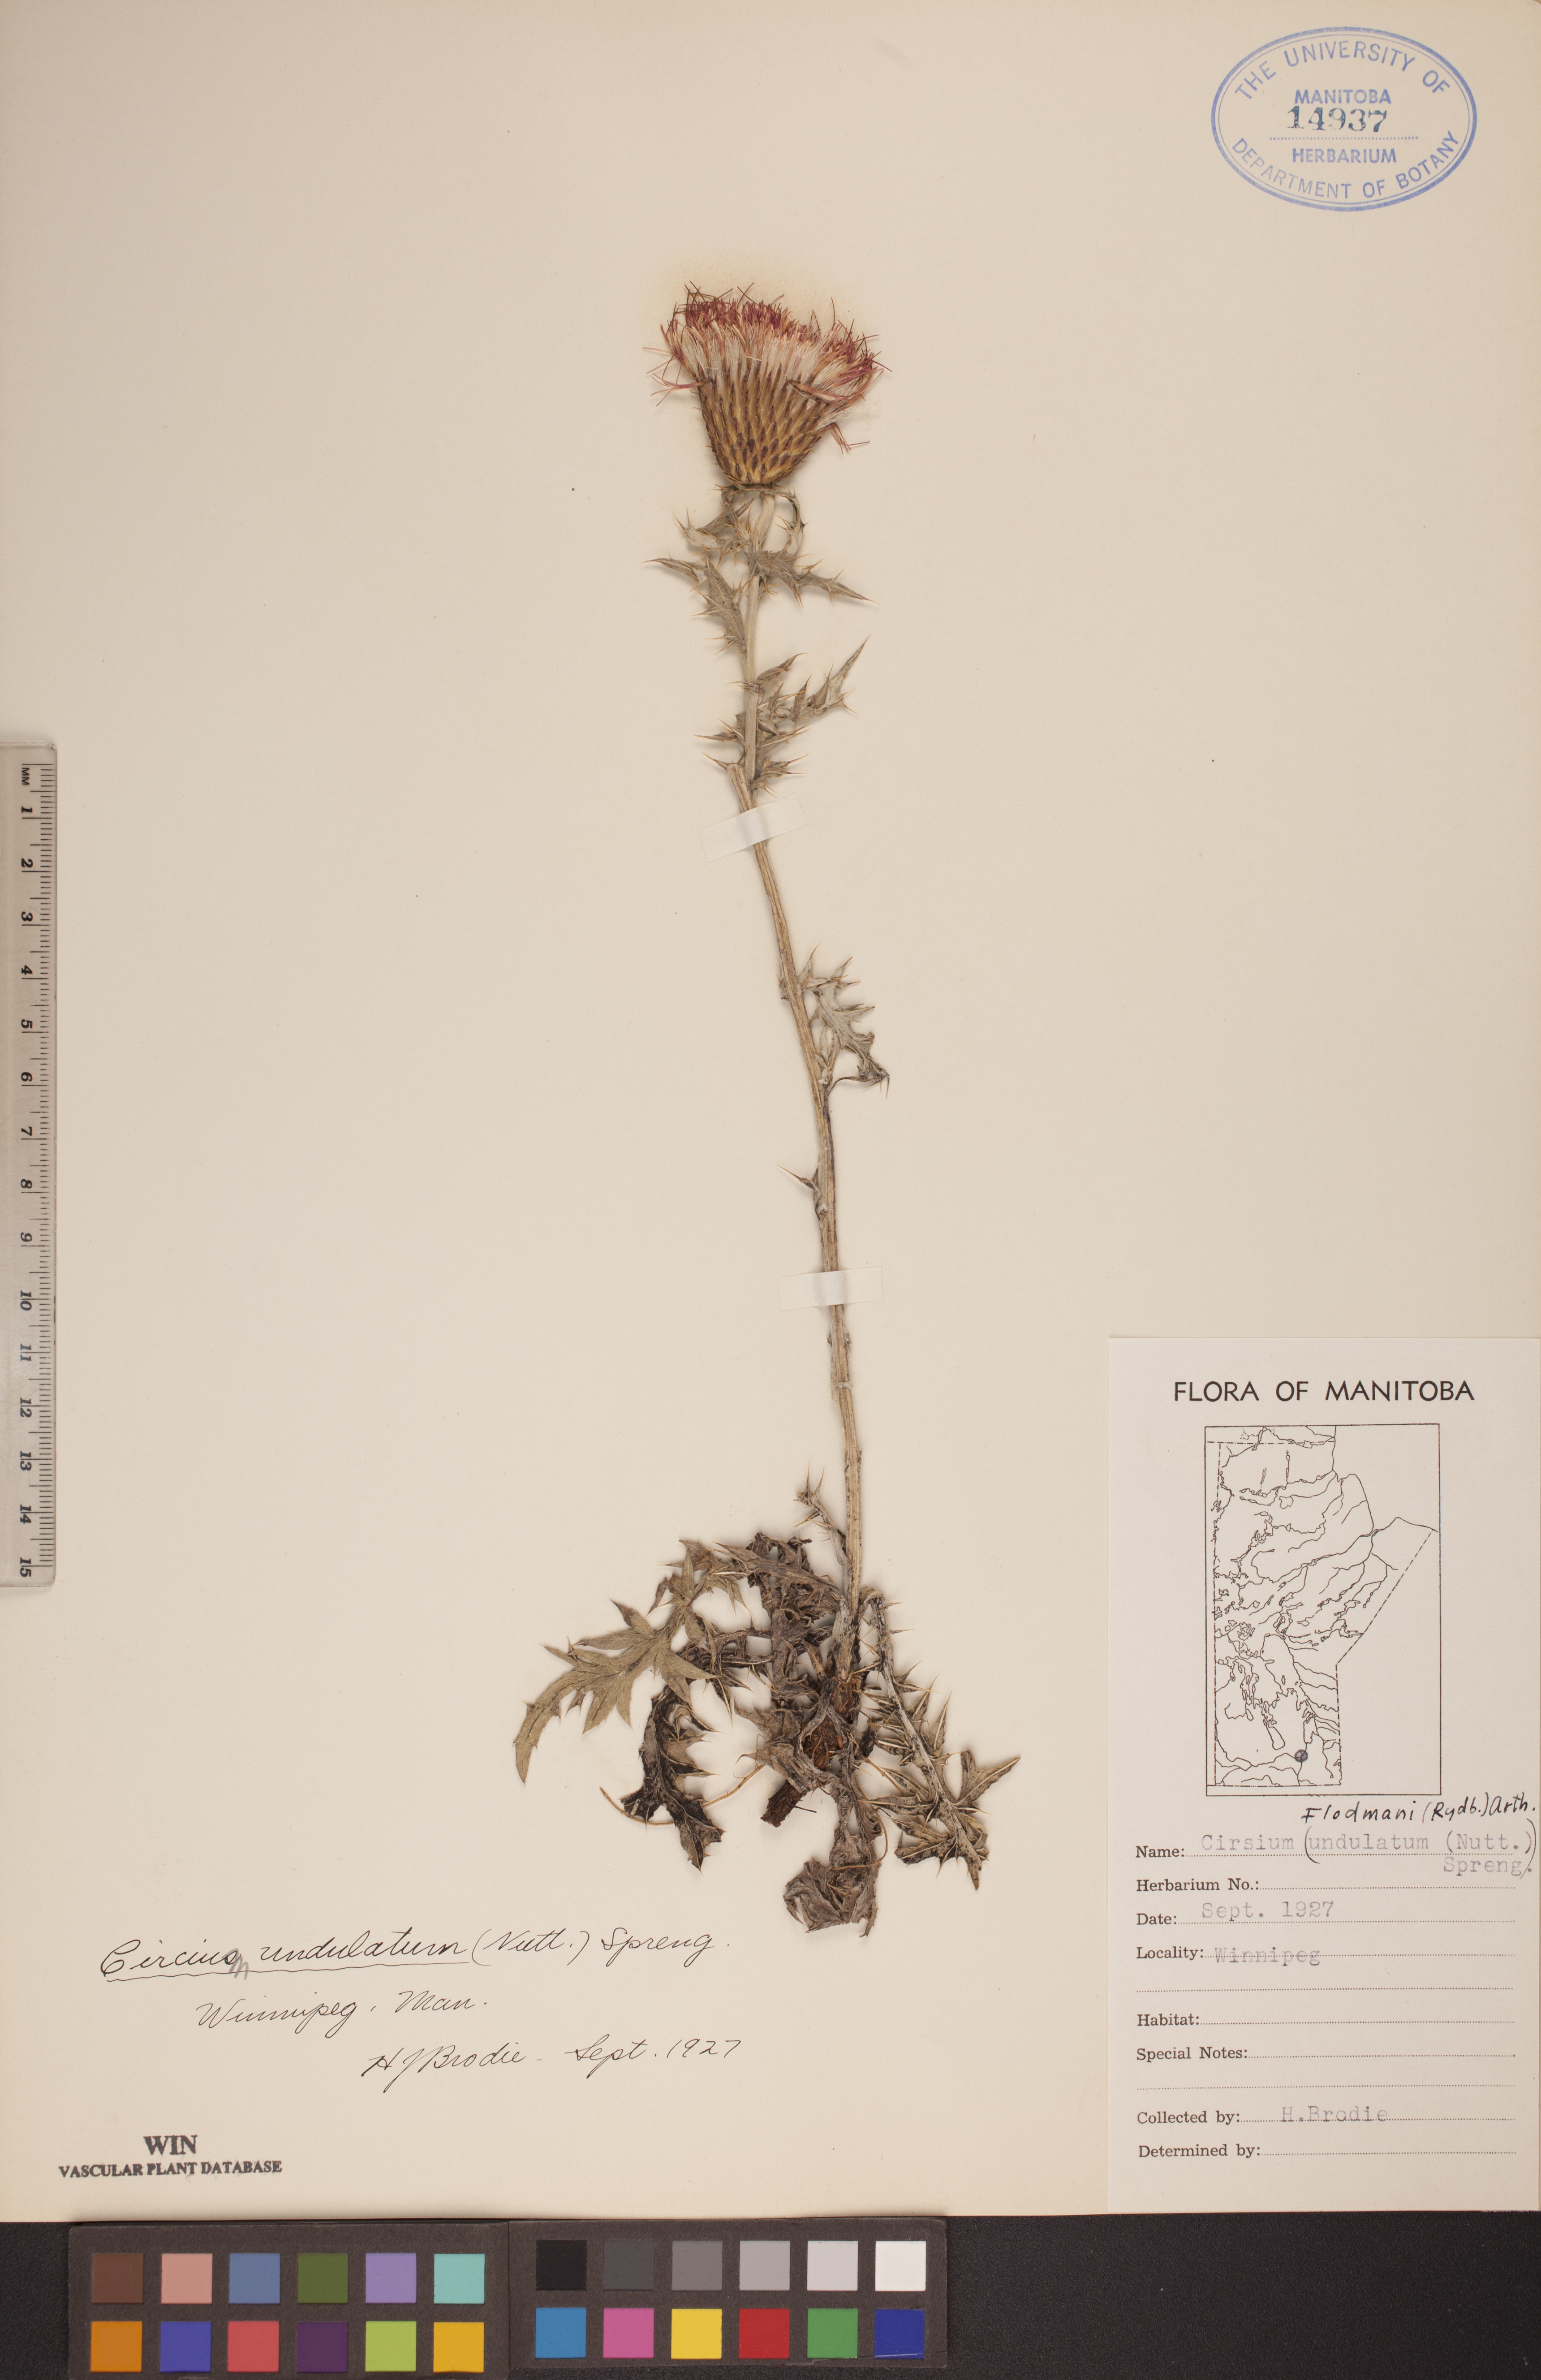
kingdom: Plantae
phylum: Tracheophyta
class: Magnoliopsida
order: Asterales
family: Asteraceae
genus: Cirsium
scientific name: Cirsium flodmanii
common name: Flodman's thistle
